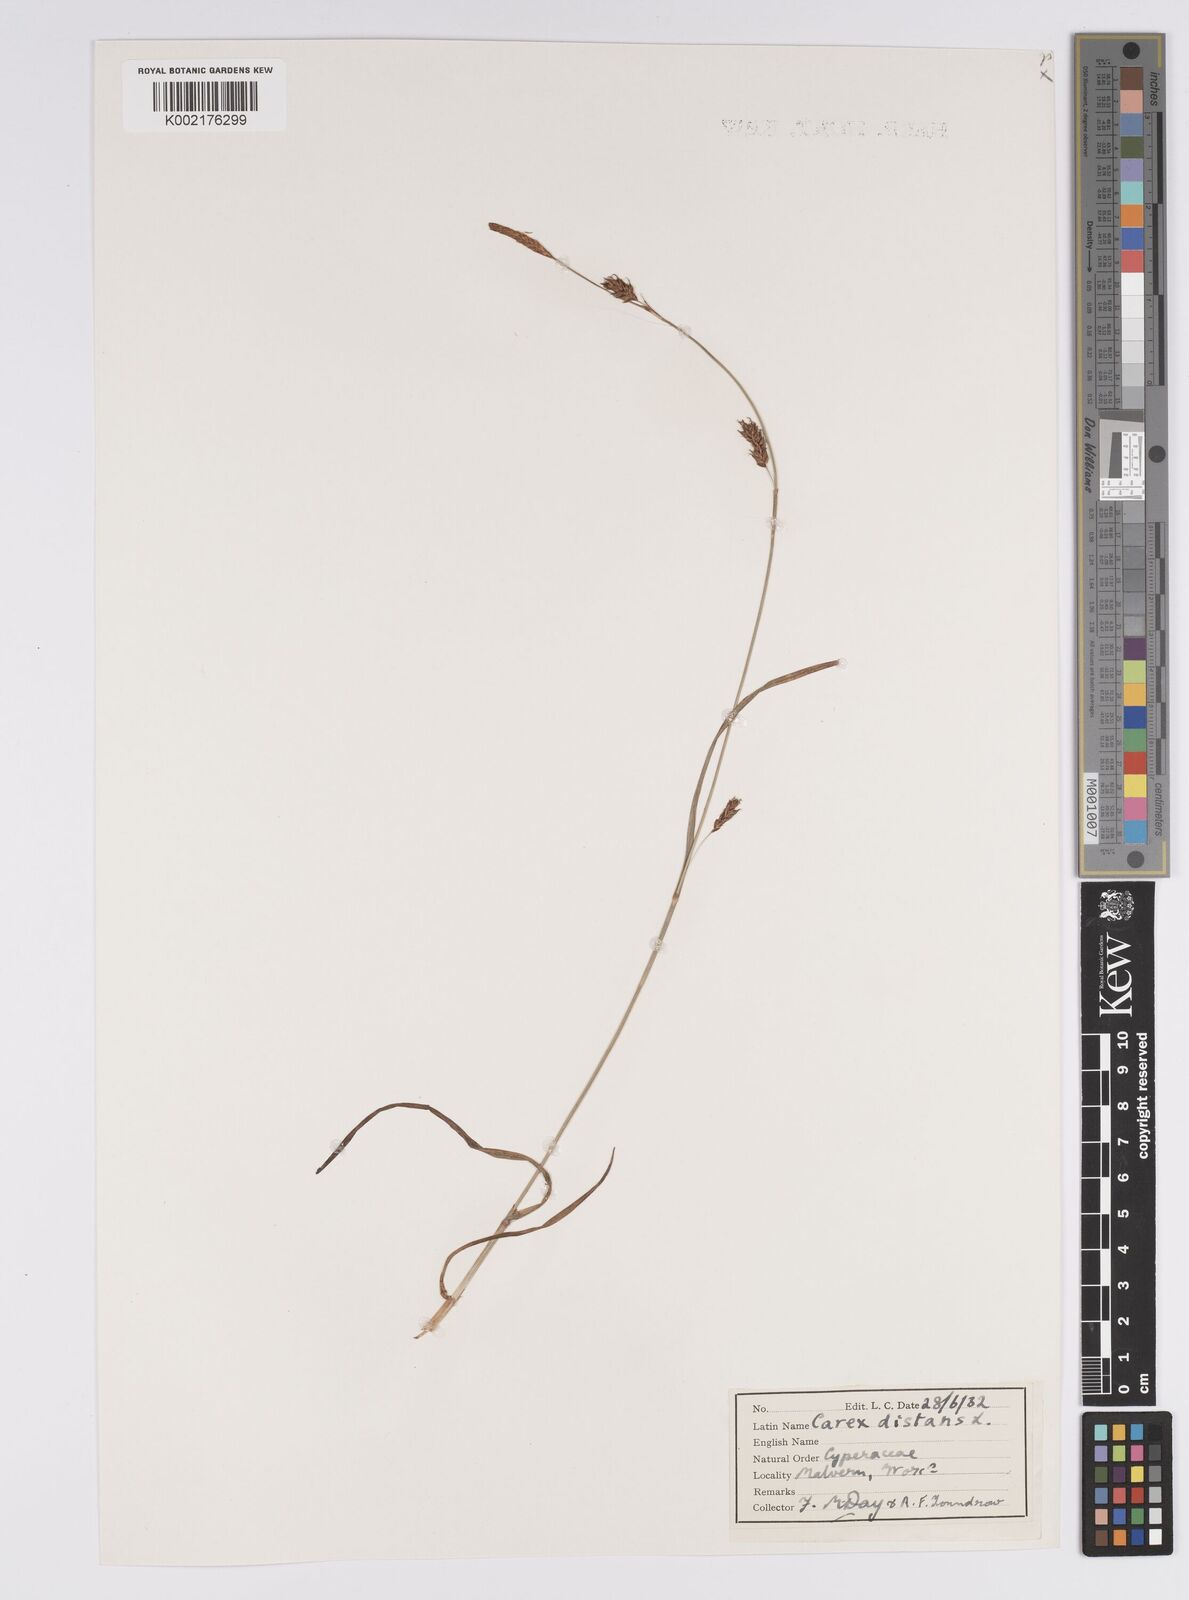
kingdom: Plantae
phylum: Tracheophyta
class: Liliopsida
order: Poales
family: Cyperaceae
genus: Carex
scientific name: Carex distans
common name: Distant sedge
